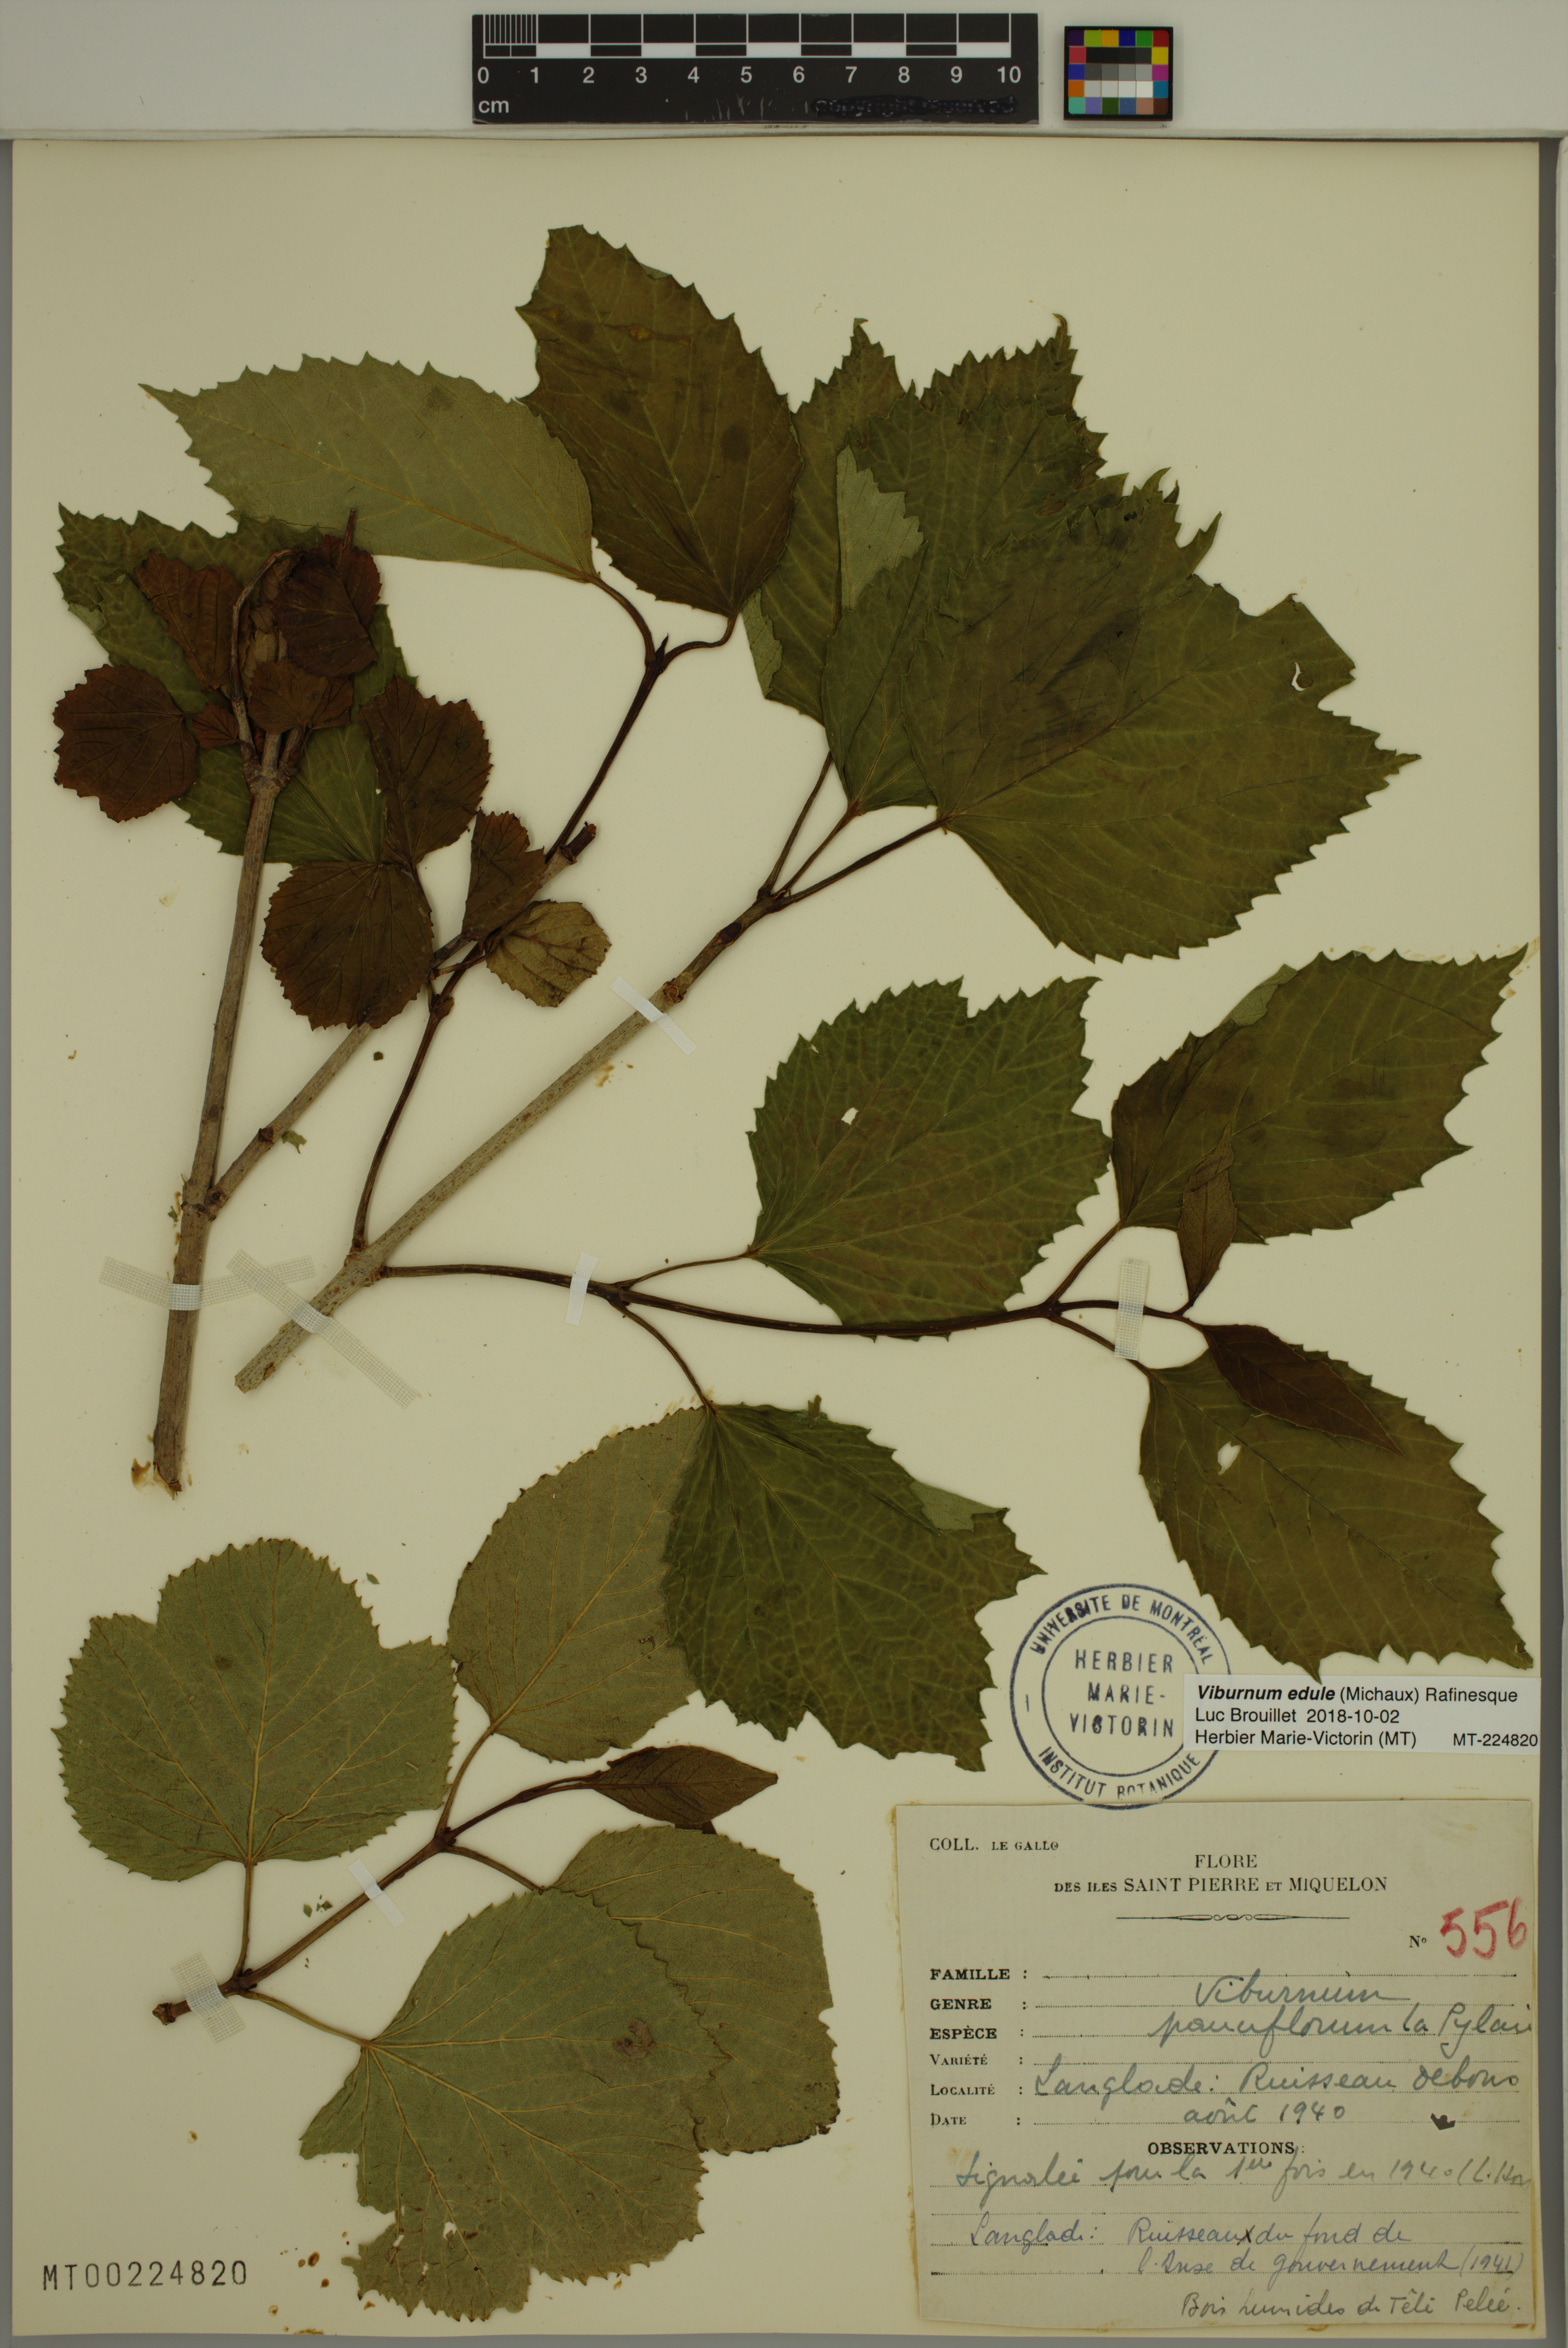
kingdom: Plantae
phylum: Tracheophyta
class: Magnoliopsida
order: Dipsacales
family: Viburnaceae
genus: Viburnum
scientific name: Viburnum edule
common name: Mooseberry
